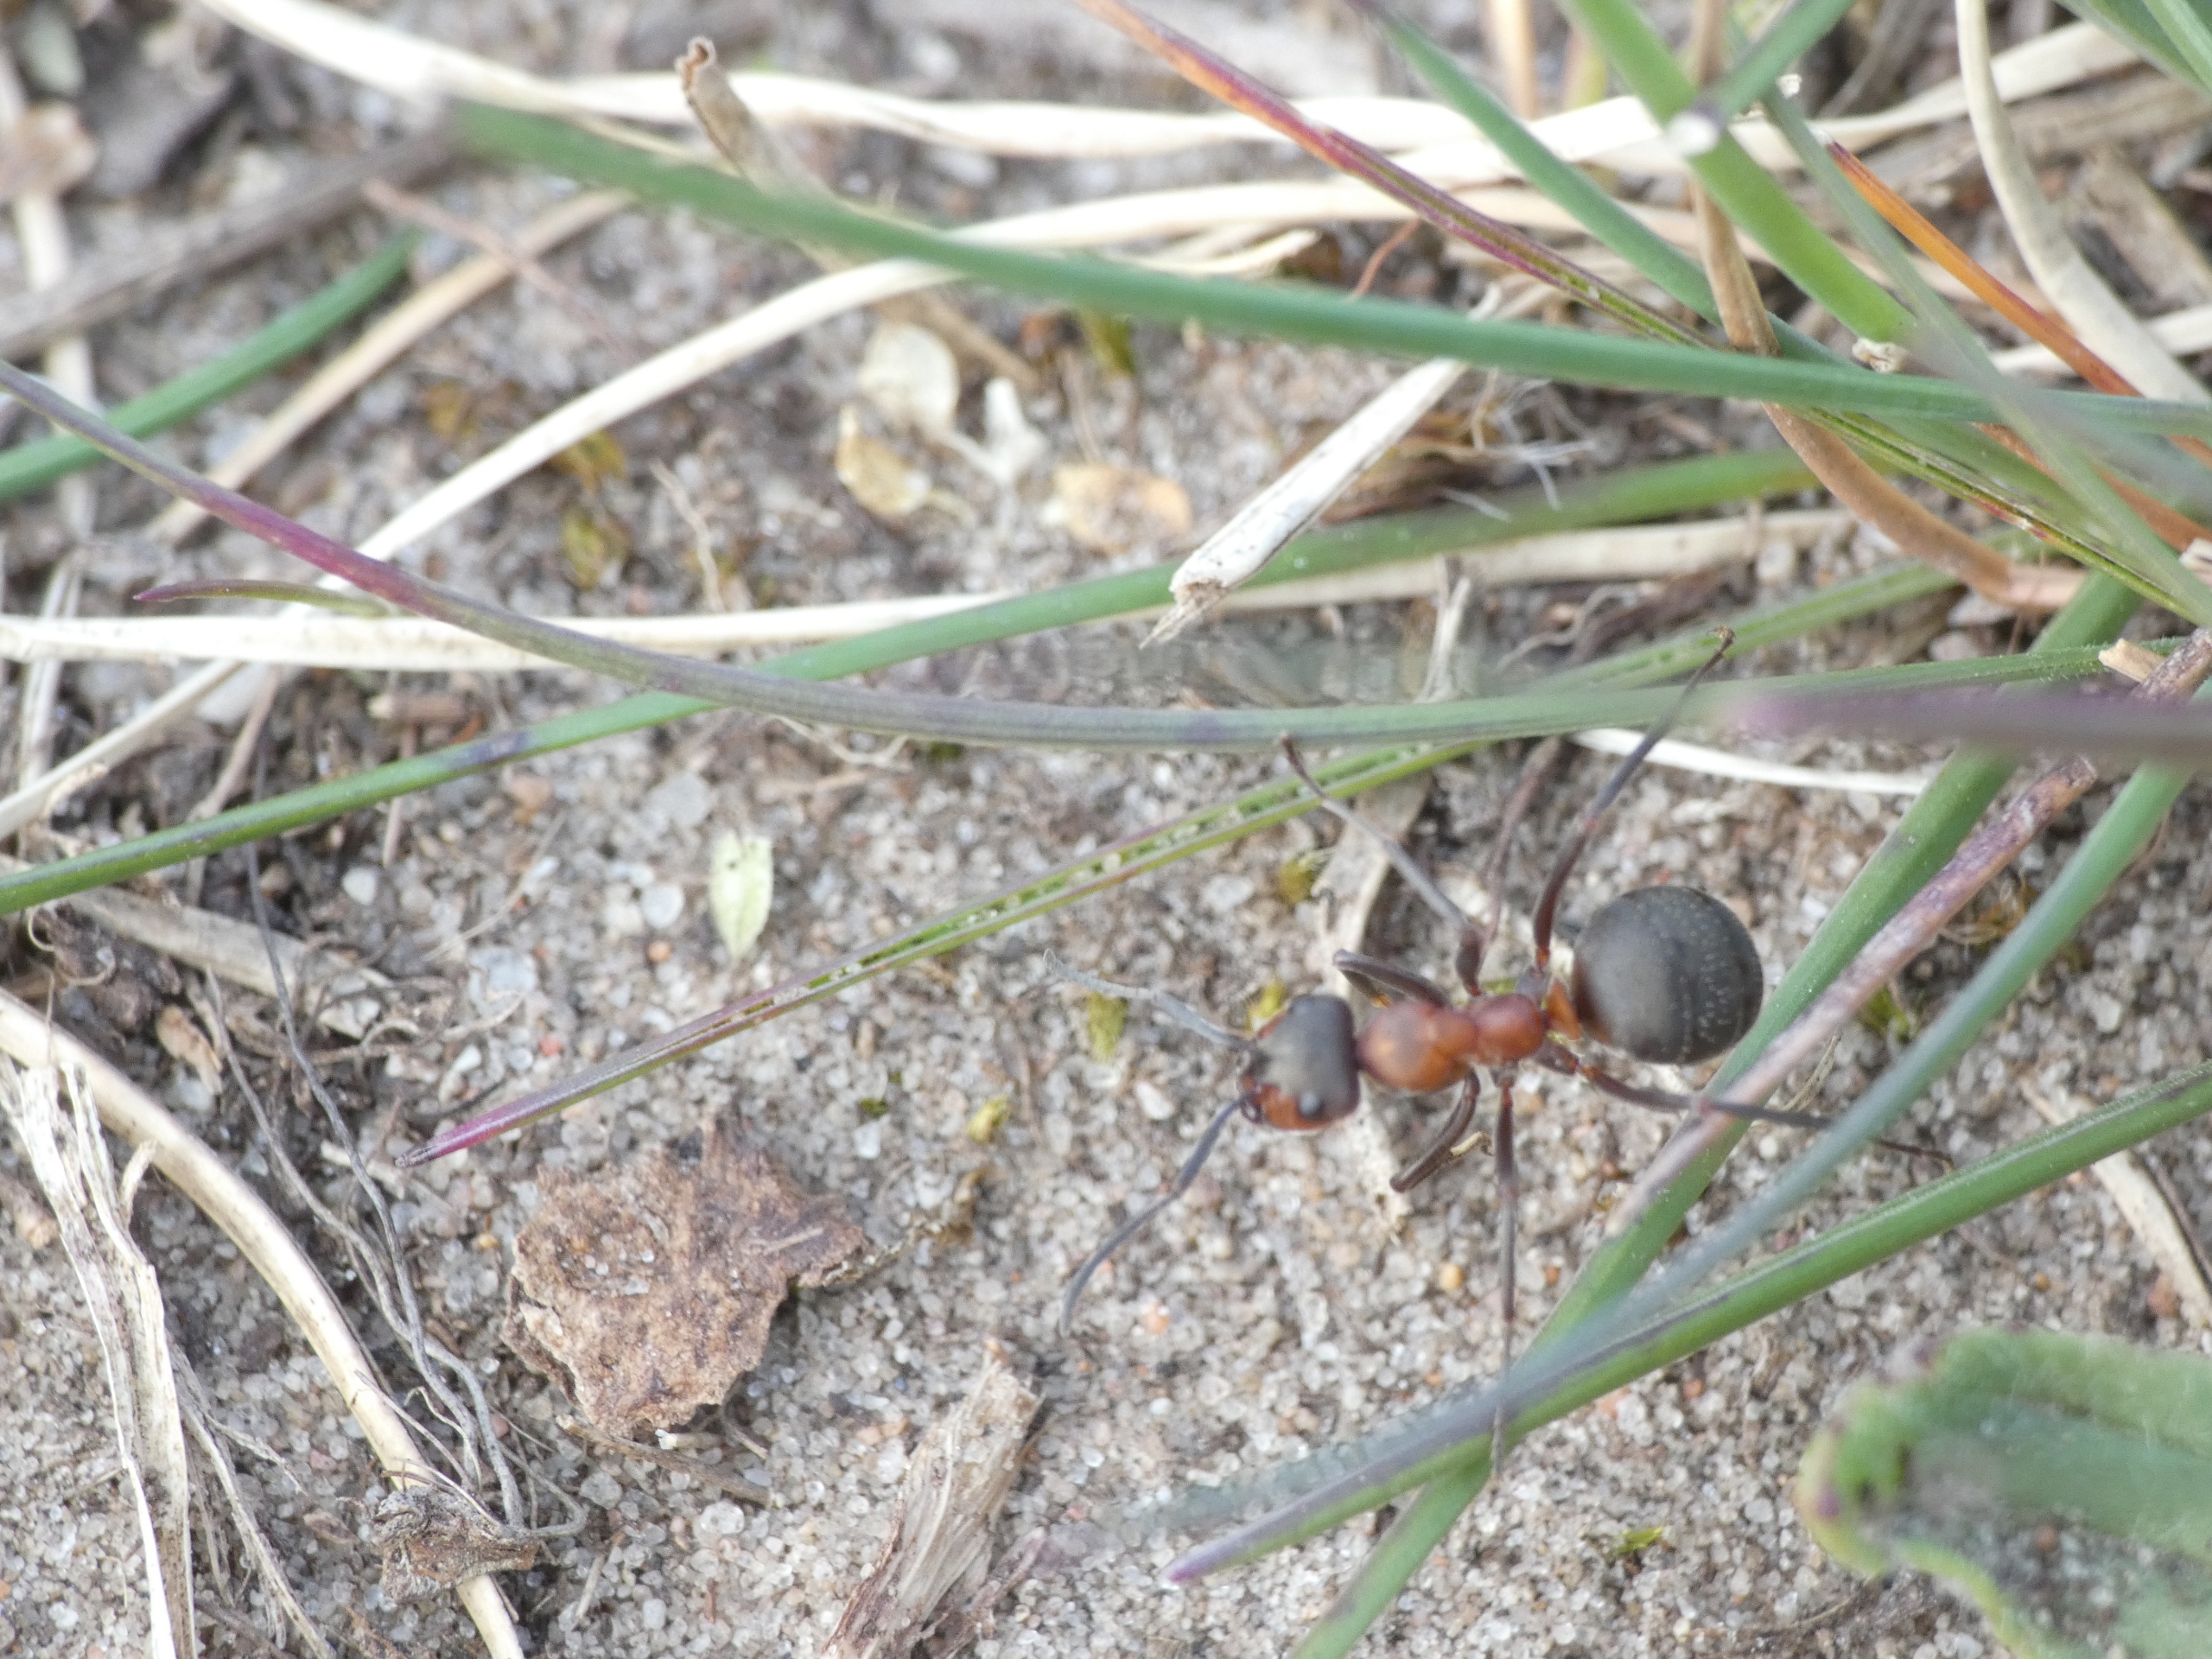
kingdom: Animalia
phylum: Arthropoda
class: Insecta
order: Hymenoptera
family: Formicidae
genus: Formica
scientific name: Formica
